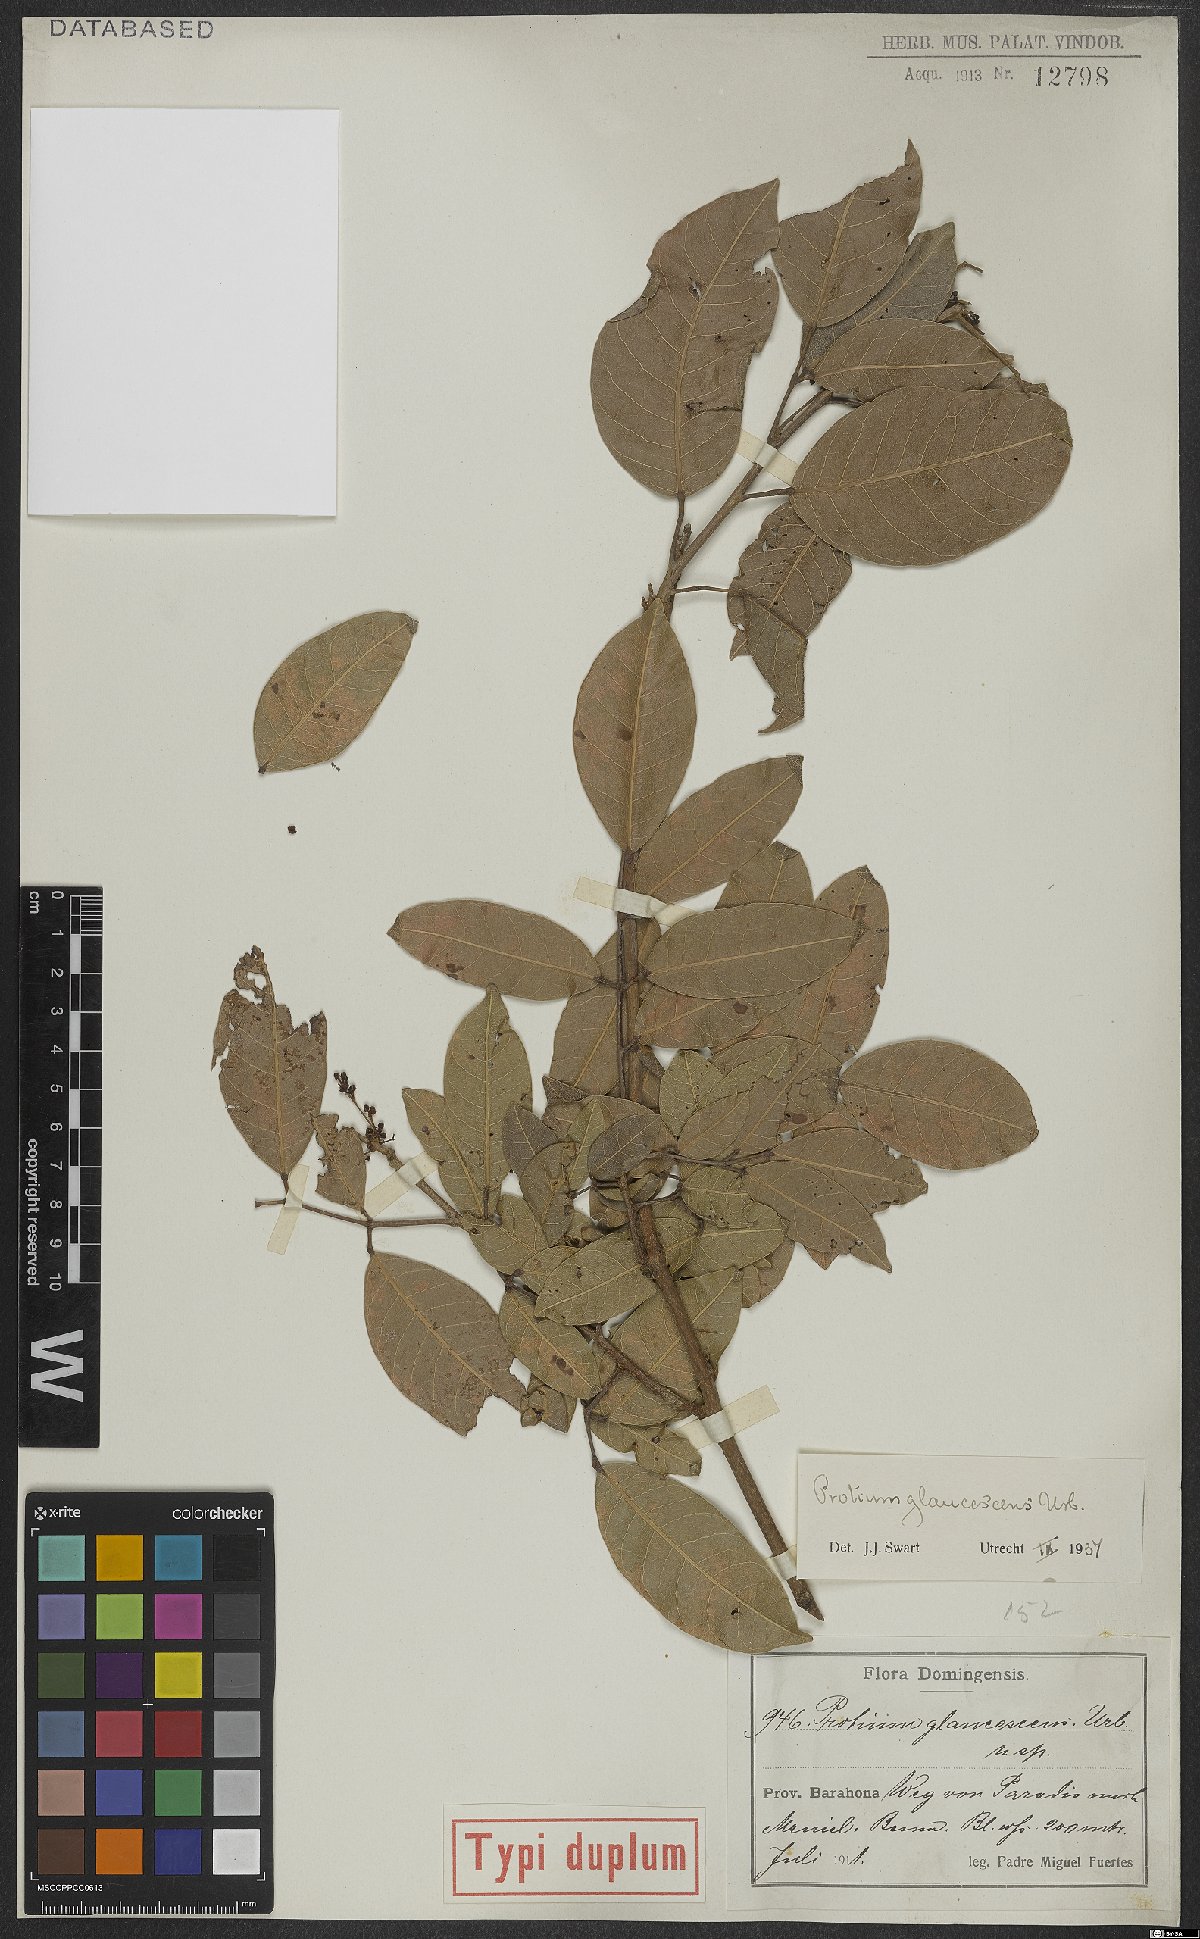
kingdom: Plantae
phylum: Tracheophyta
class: Magnoliopsida
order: Sapindales
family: Burseraceae
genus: Protium
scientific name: Protium glaucescens
